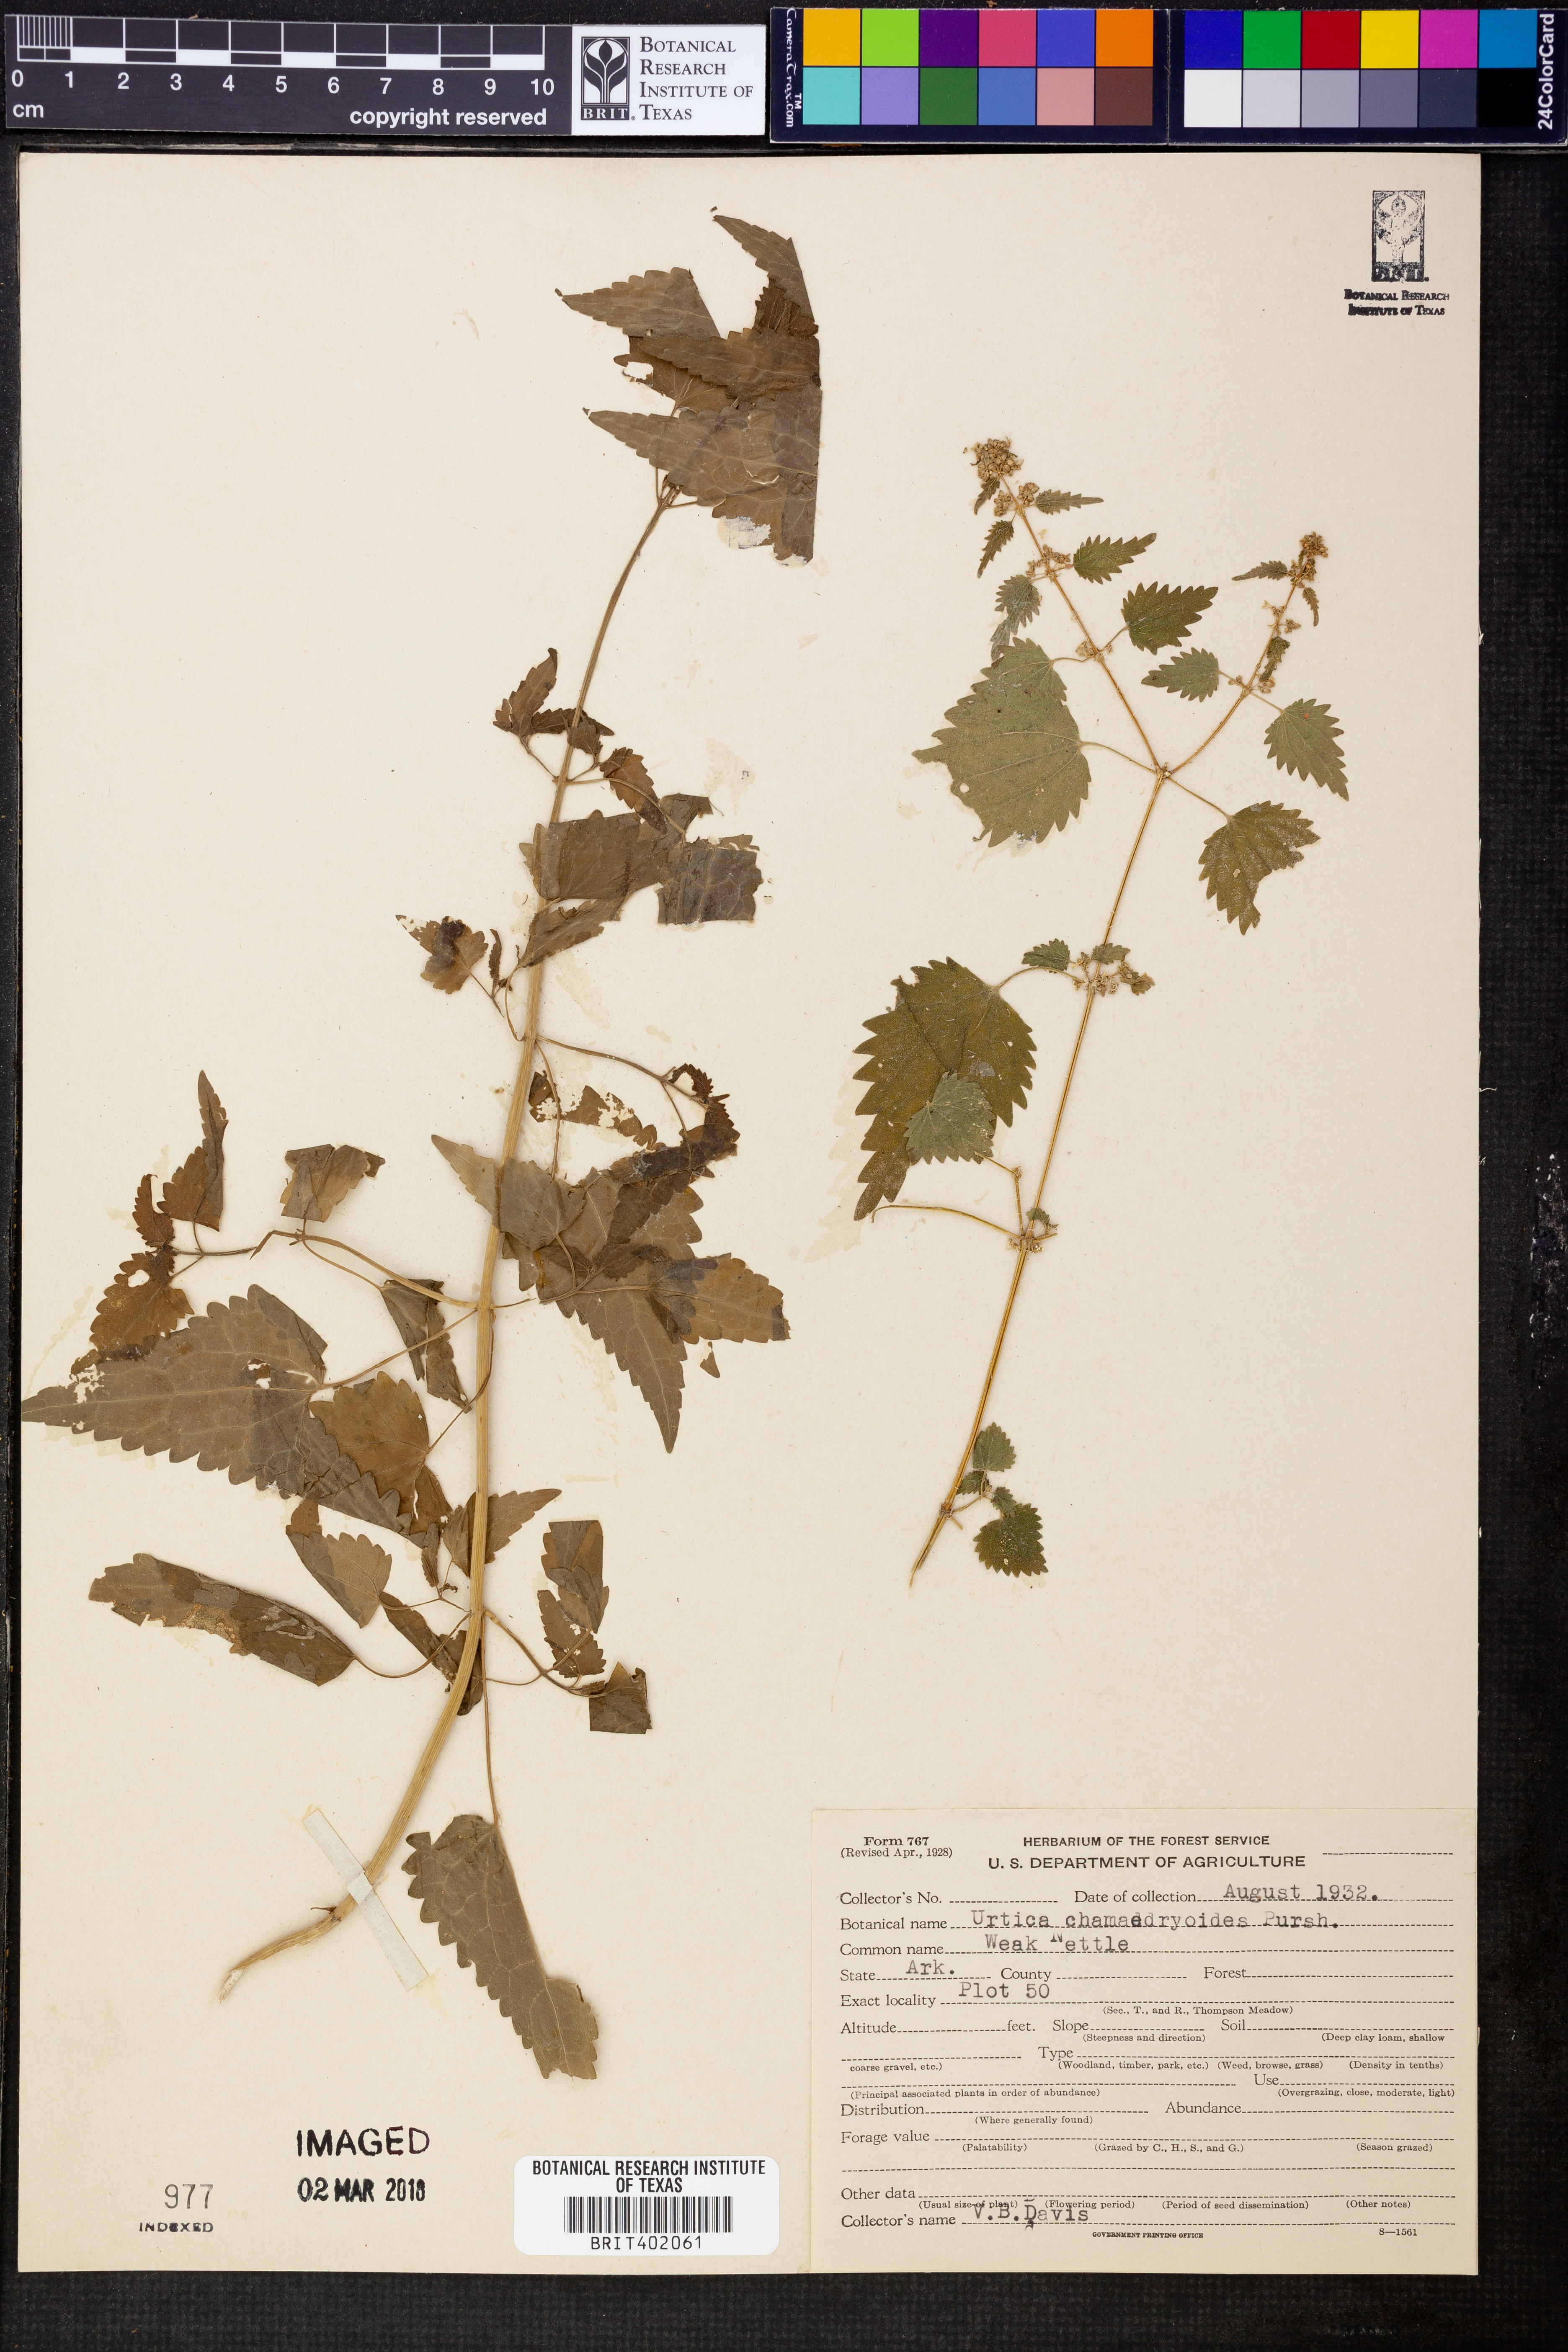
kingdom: Plantae
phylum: Tracheophyta
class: Magnoliopsida
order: Rosales
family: Urticaceae
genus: Urtica
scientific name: Urtica chamaedryoides
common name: Heart-leaf nettle
